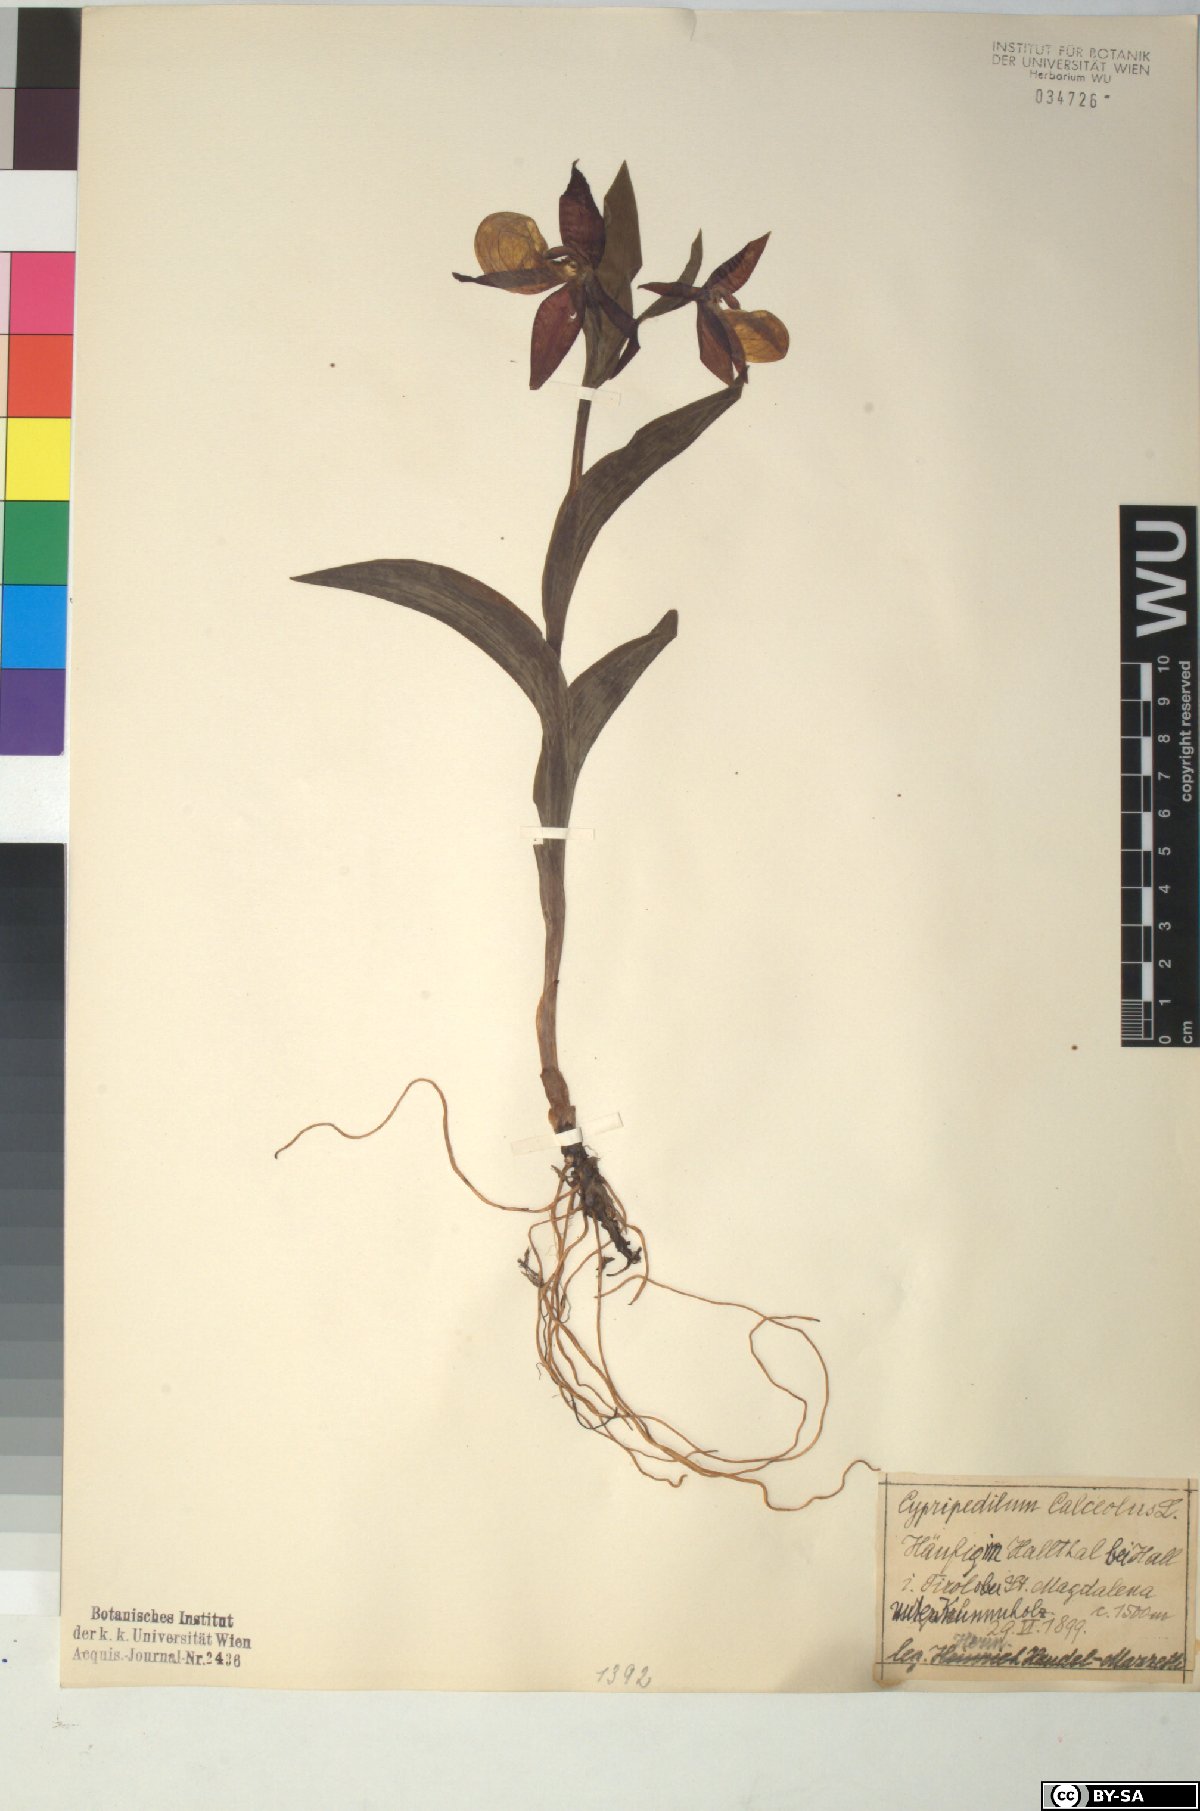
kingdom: Plantae
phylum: Tracheophyta
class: Liliopsida
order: Asparagales
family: Orchidaceae
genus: Cypripedium
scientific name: Cypripedium calceolus
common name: Lady's-slipper
